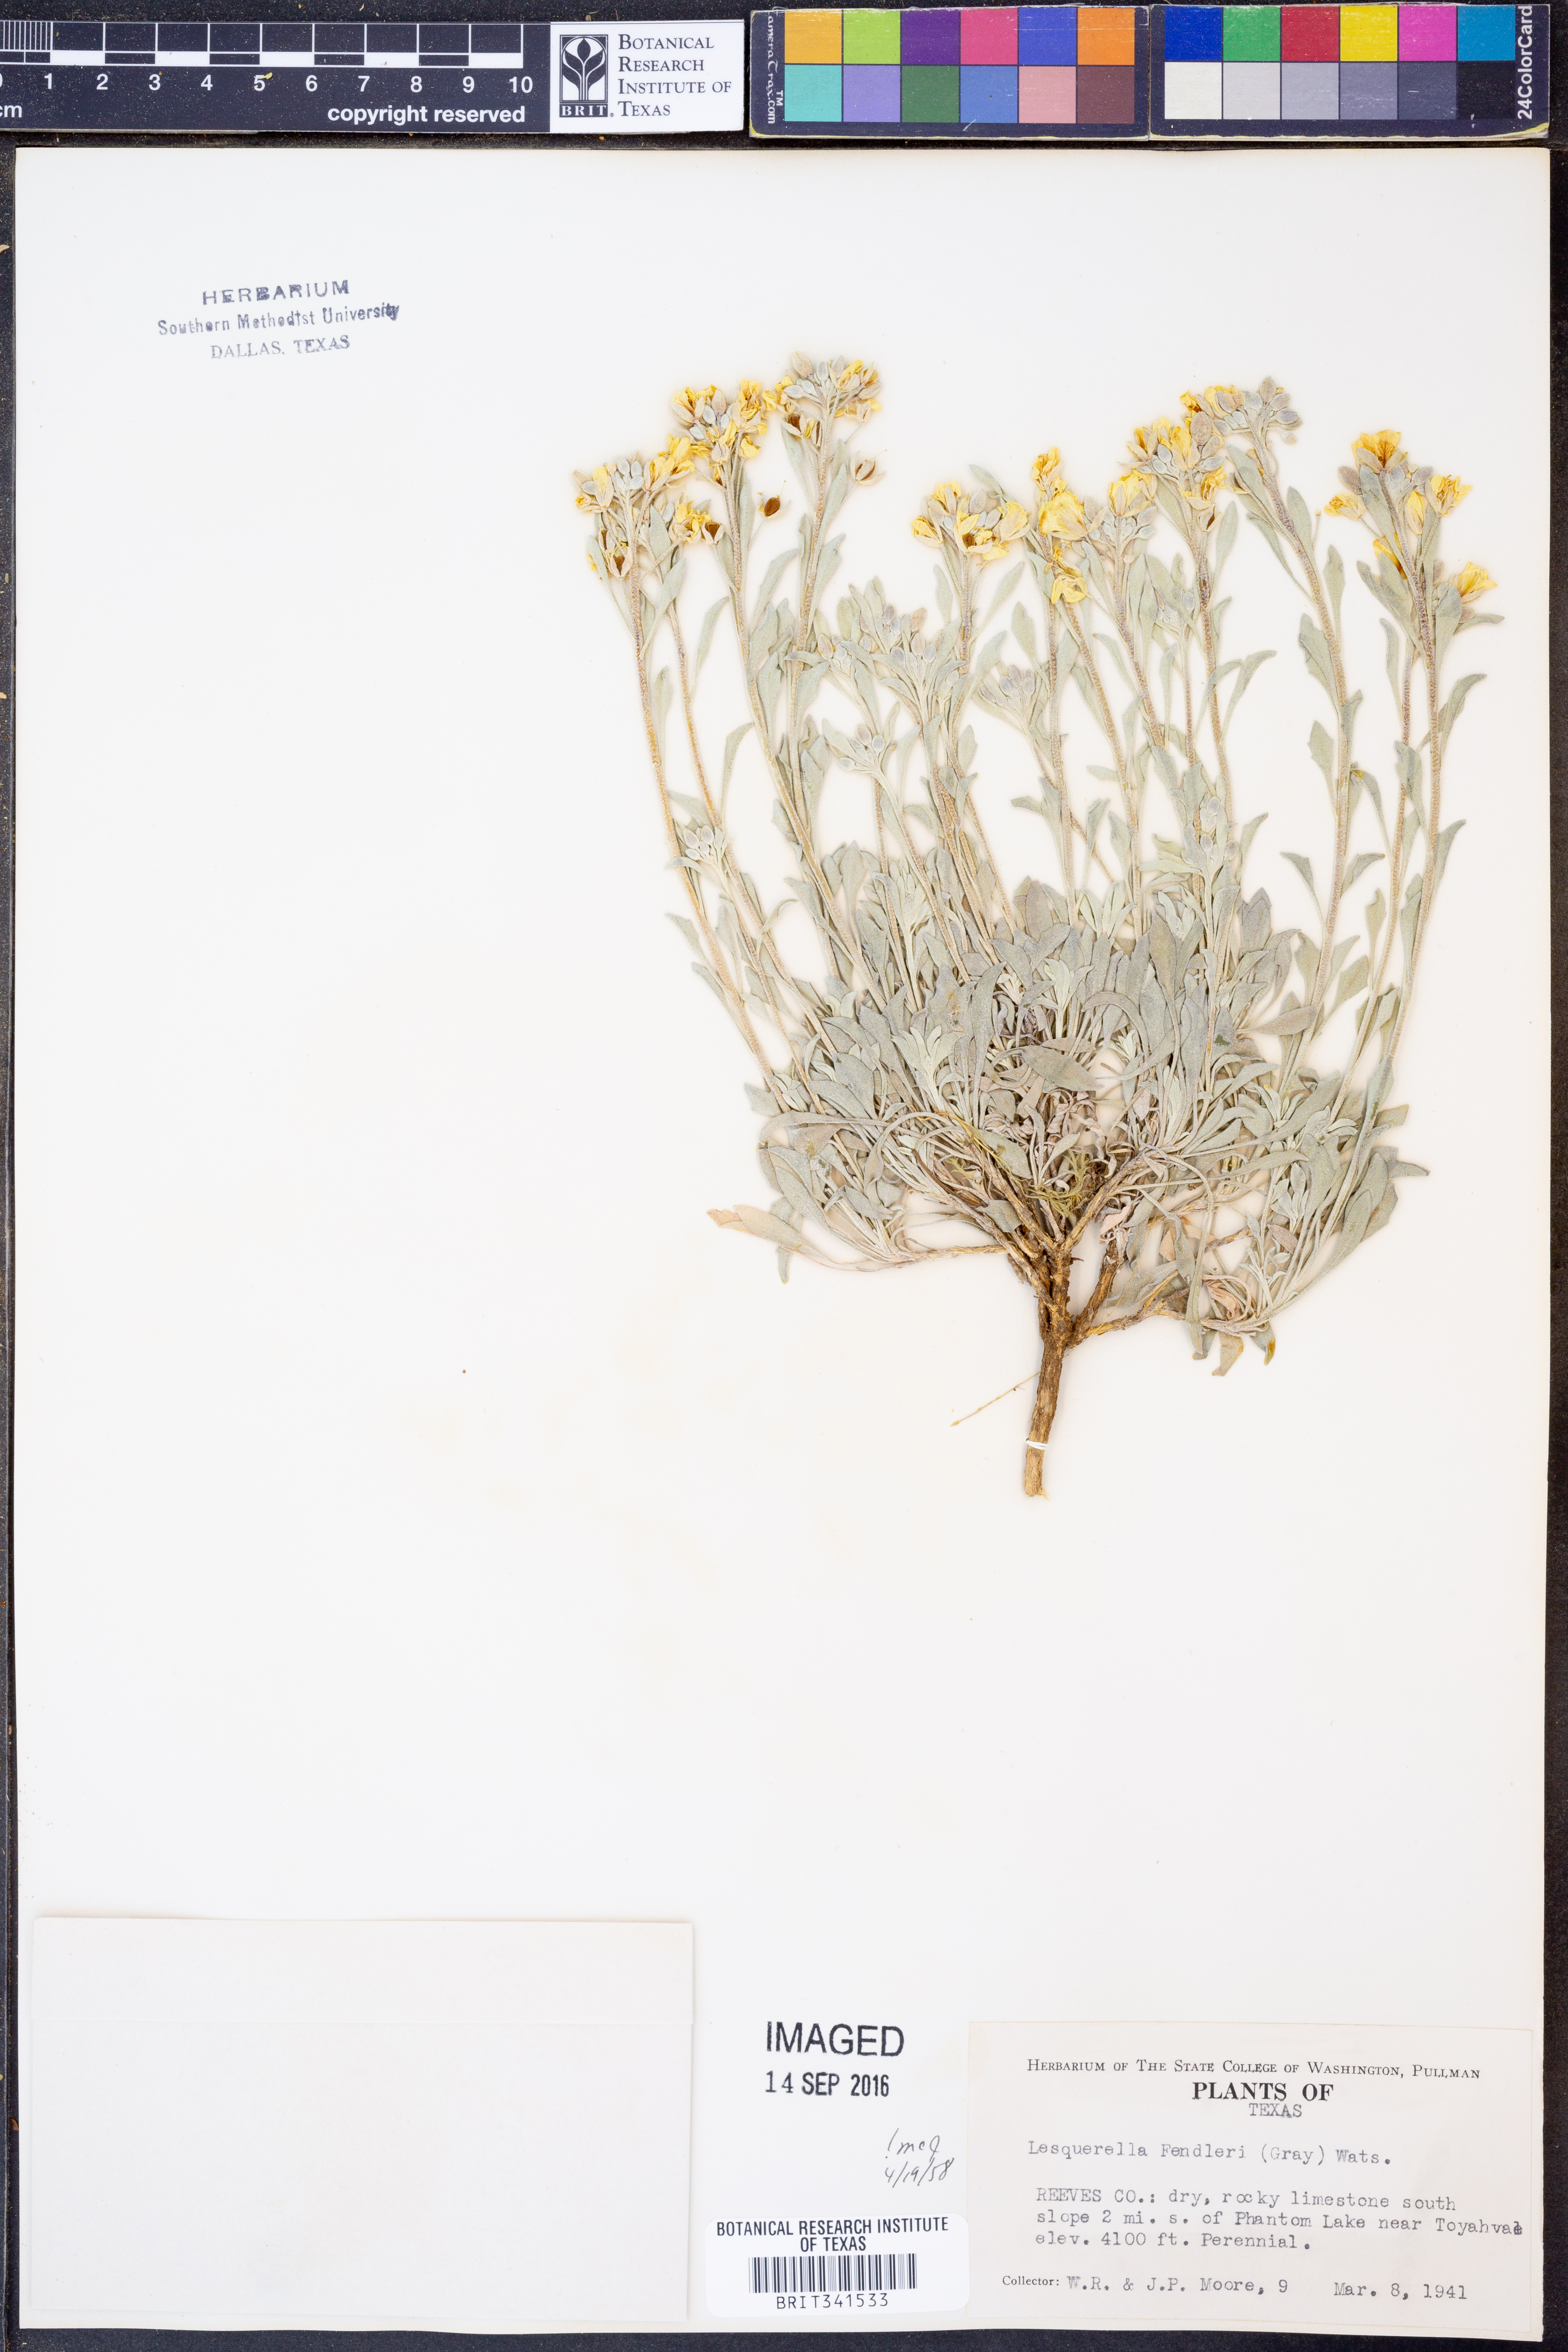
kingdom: Plantae
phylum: Tracheophyta
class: Magnoliopsida
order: Brassicales
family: Brassicaceae
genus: Physaria
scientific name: Physaria fendleri
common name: Fendler's bladderpod
